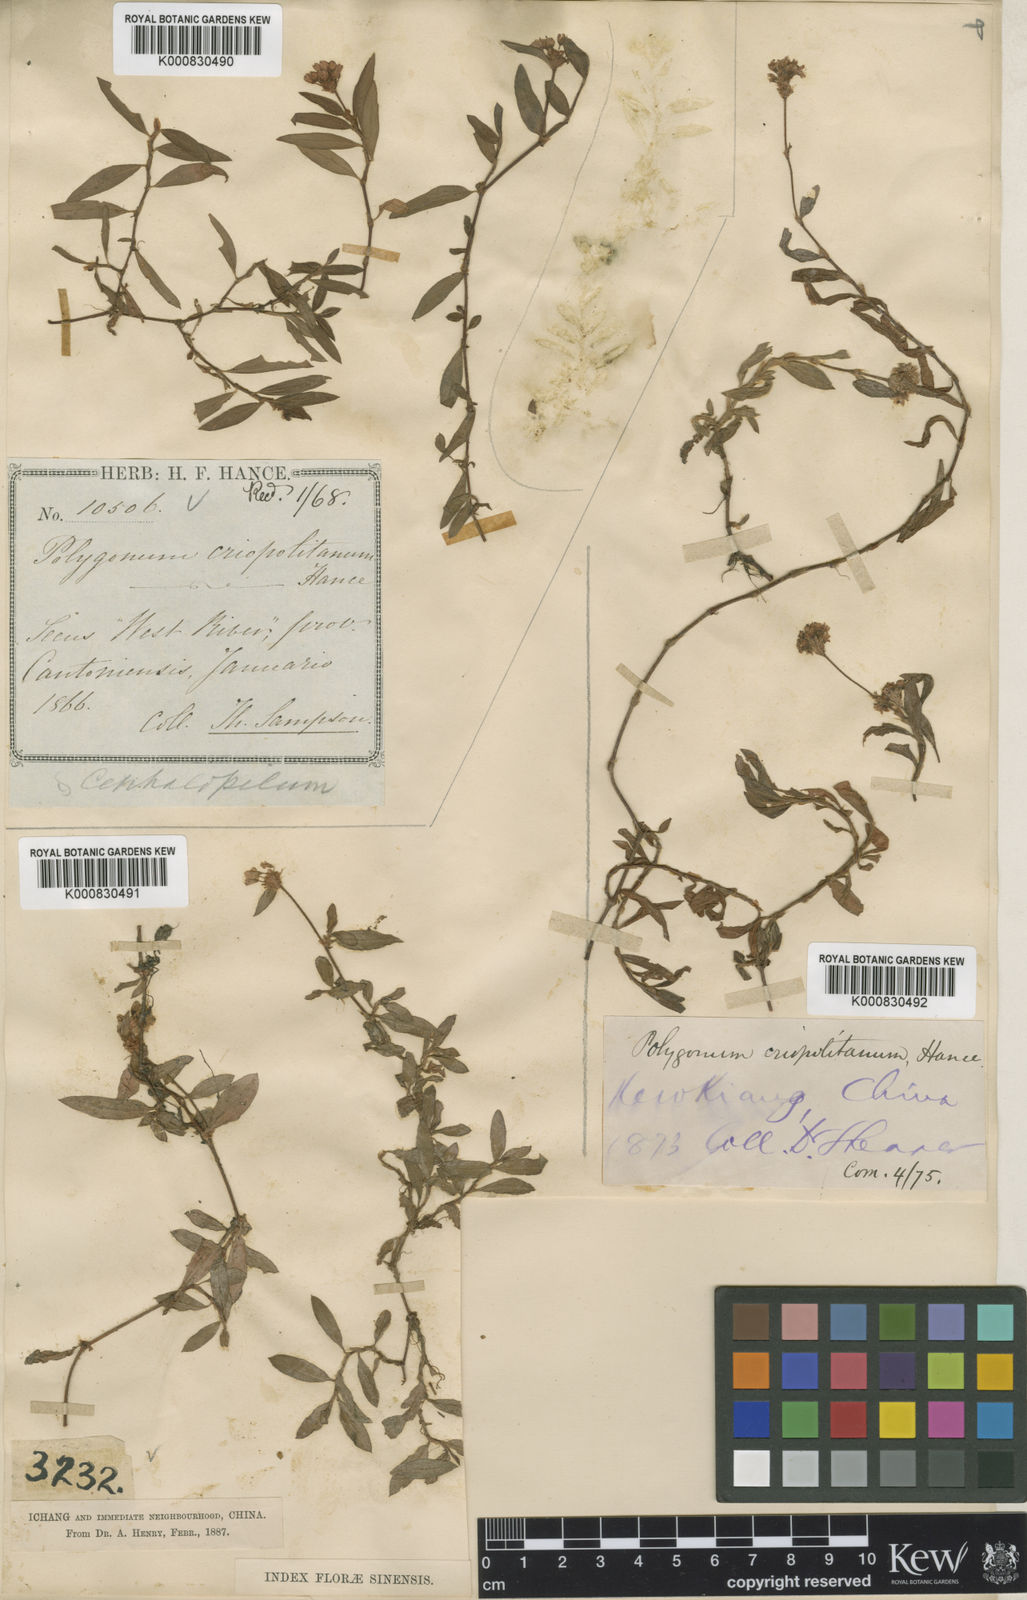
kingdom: Plantae
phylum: Tracheophyta
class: Magnoliopsida
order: Caryophyllales
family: Polygonaceae
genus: Persicaria
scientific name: Persicaria criopolitana
